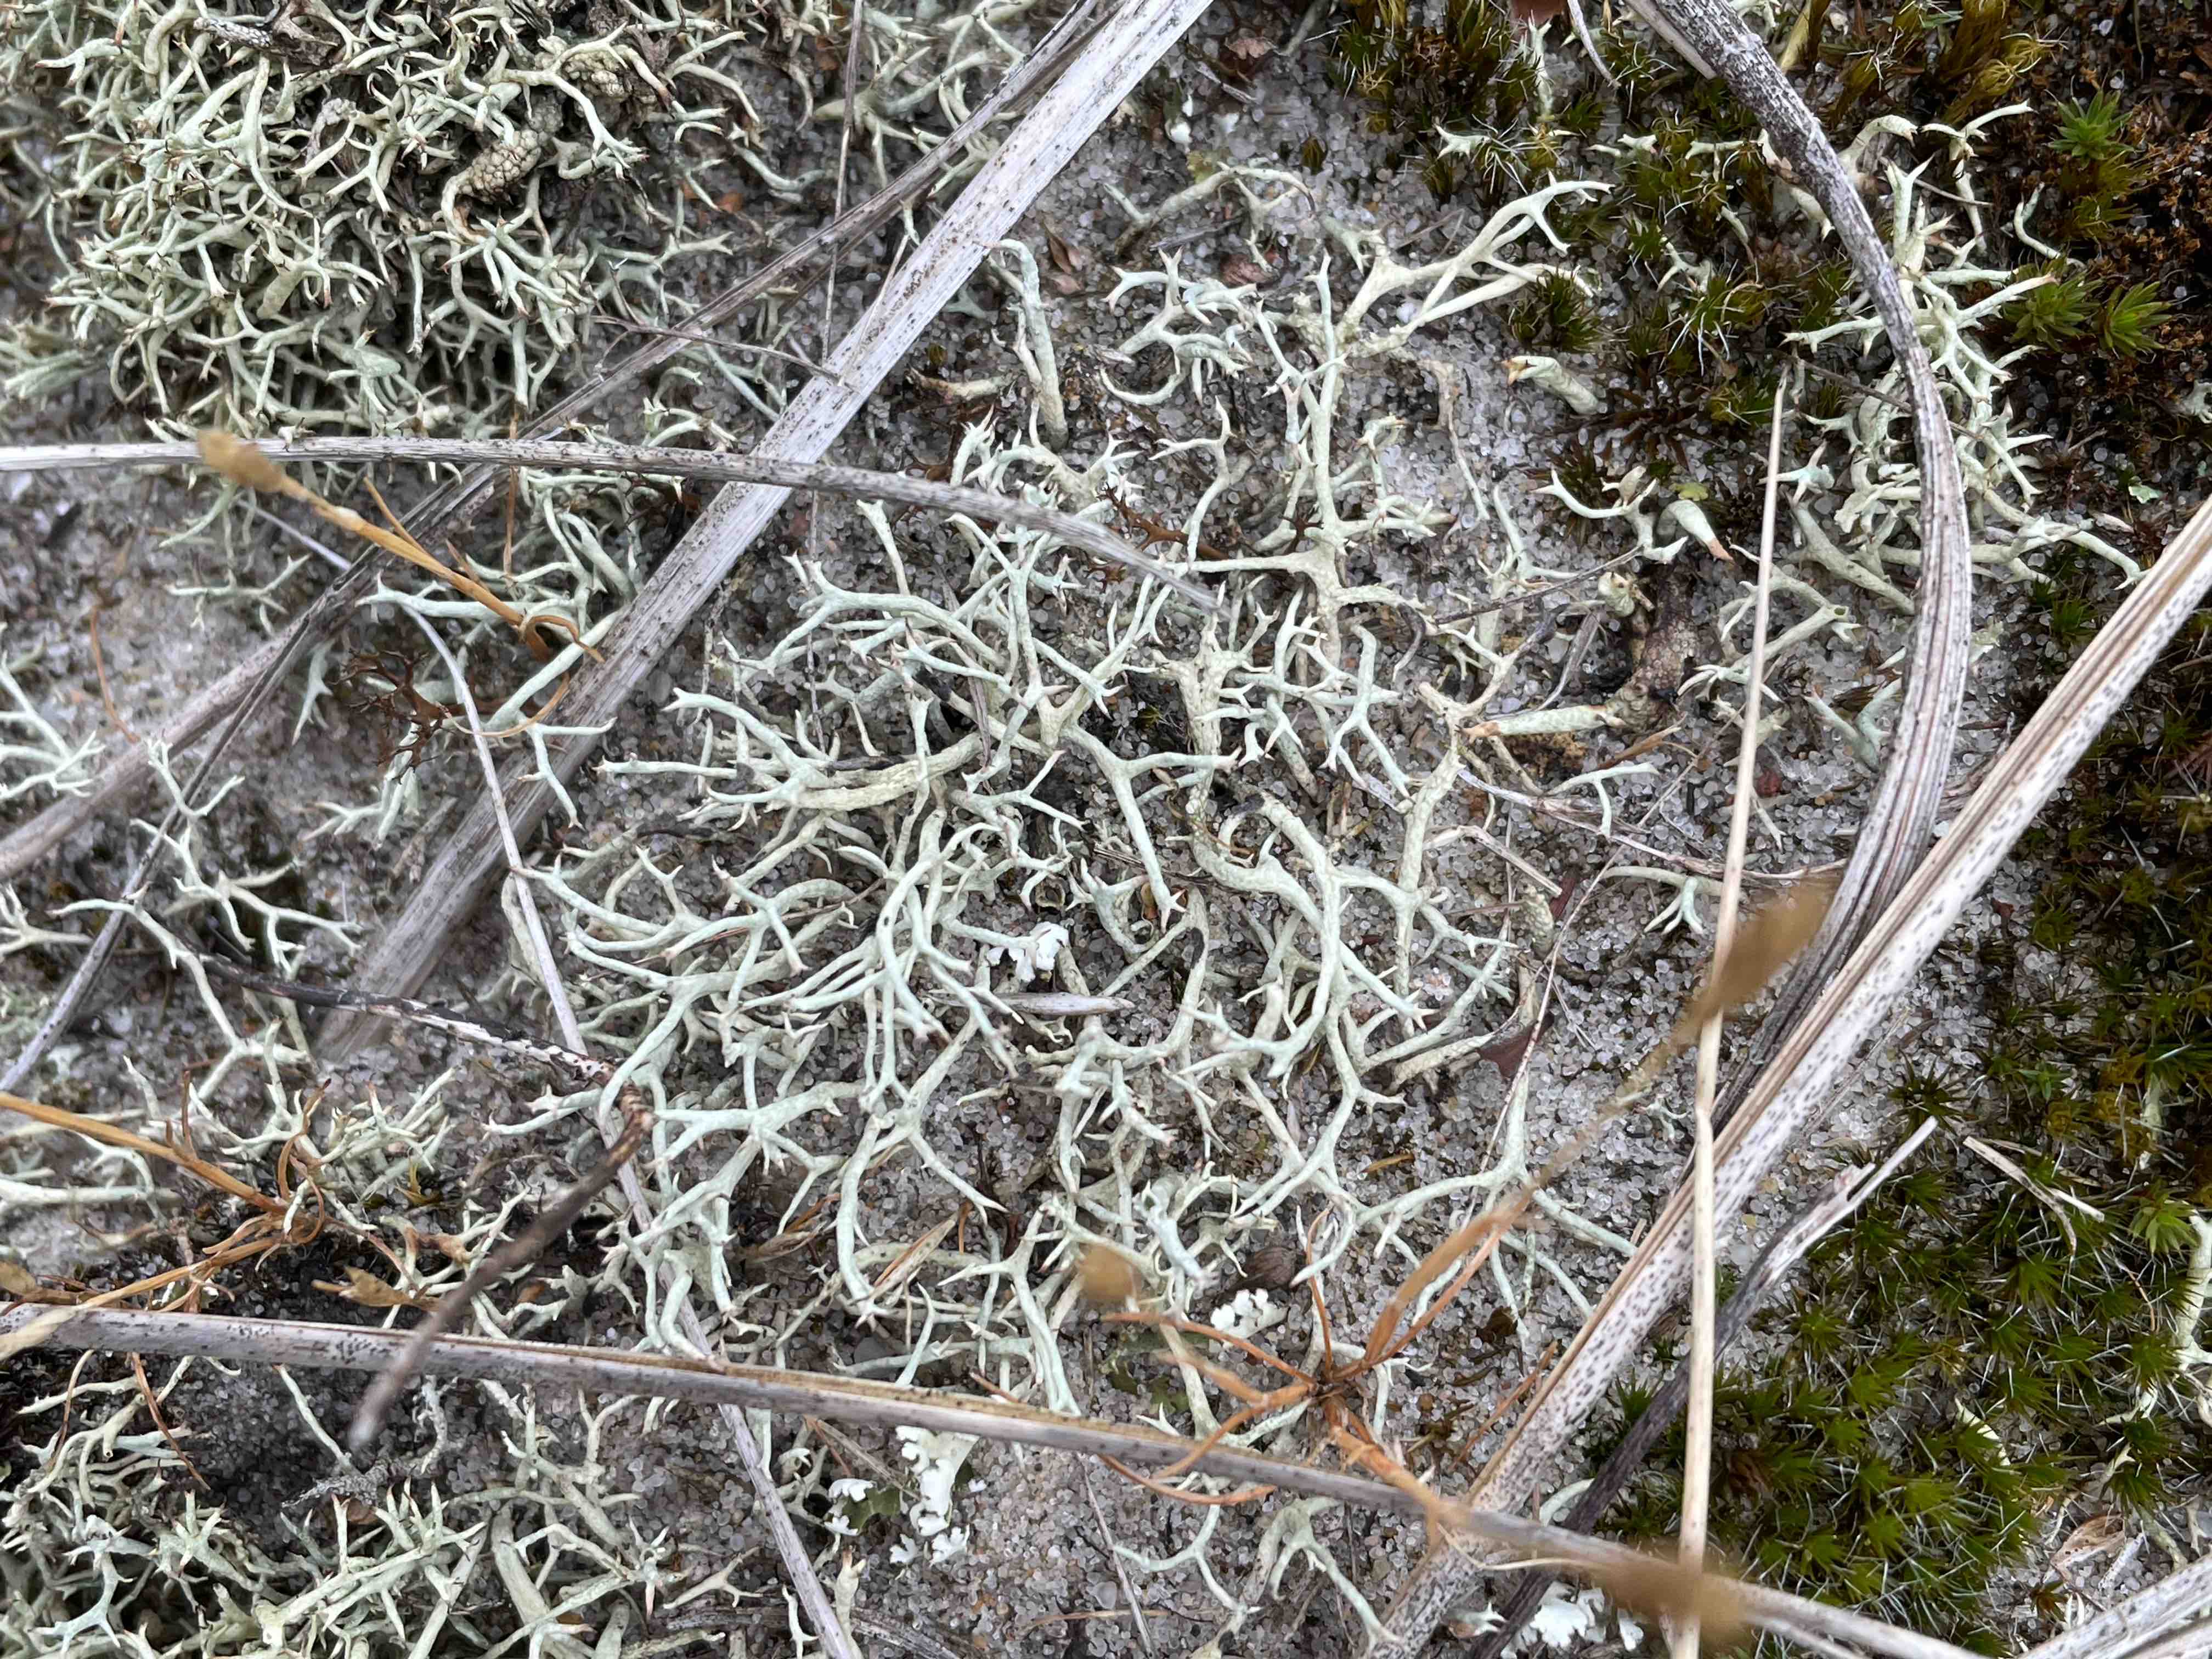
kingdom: Fungi
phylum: Ascomycota
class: Lecanoromycetes
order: Lecanorales
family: Cladoniaceae
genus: Cladonia
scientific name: Cladonia zopfii
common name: klit-bægerlav
